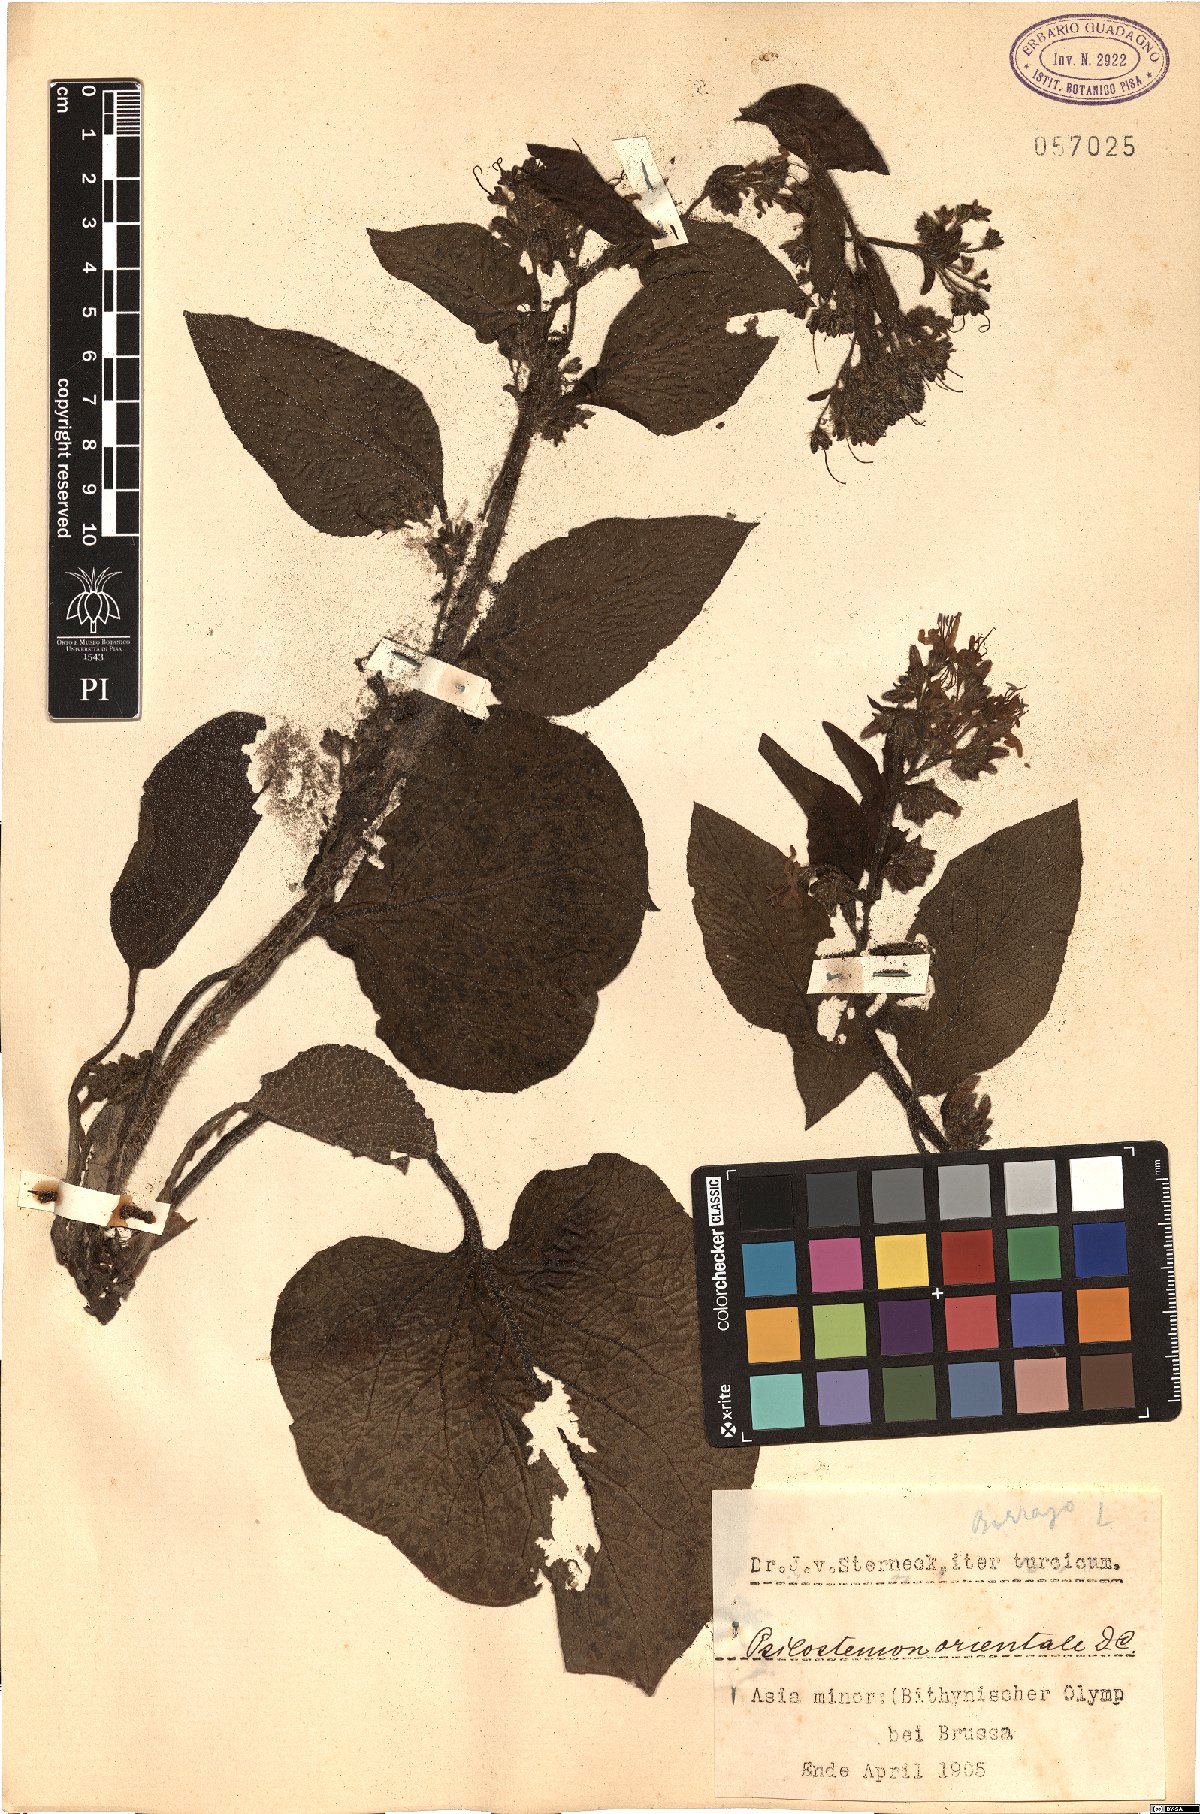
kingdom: Plantae
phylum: Tracheophyta
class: Magnoliopsida
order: Boraginales
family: Boraginaceae
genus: Trachystemon
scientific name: Trachystemon orientale
